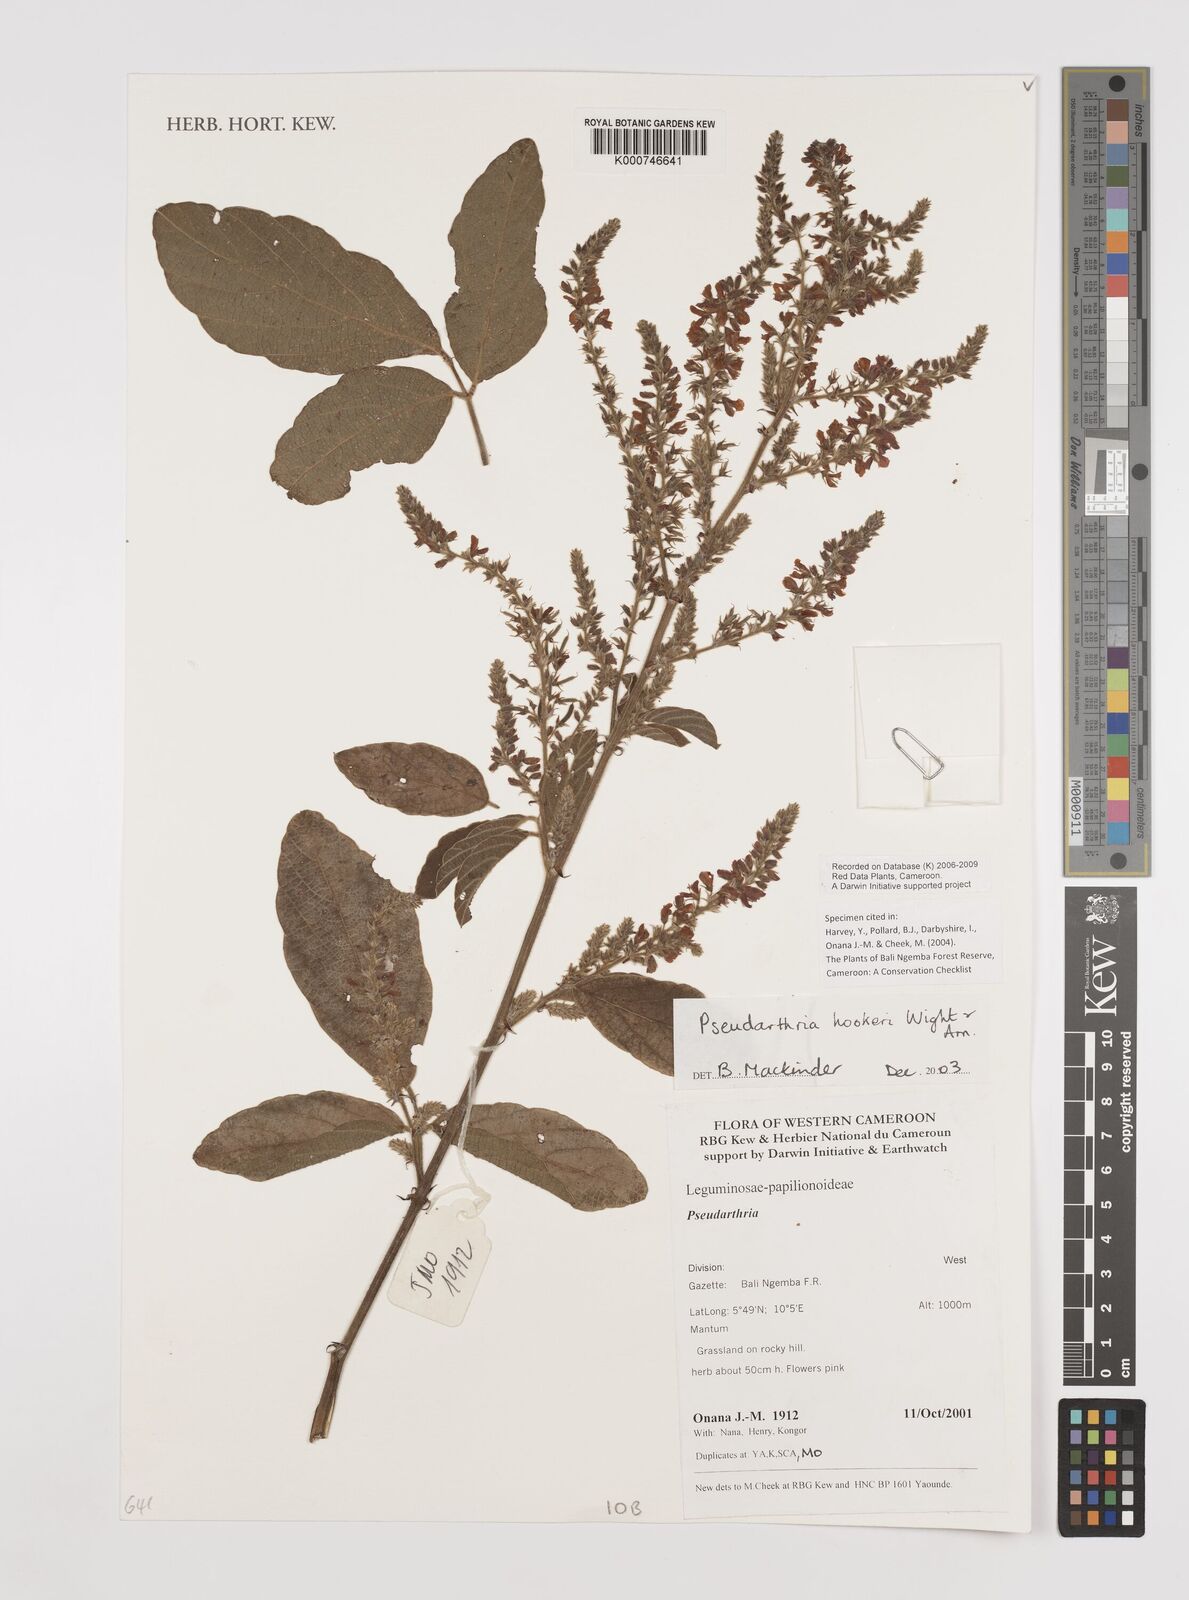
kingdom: Plantae
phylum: Tracheophyta
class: Magnoliopsida
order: Fabales
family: Fabaceae
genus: Pseudarthria
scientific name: Pseudarthria hookeri
